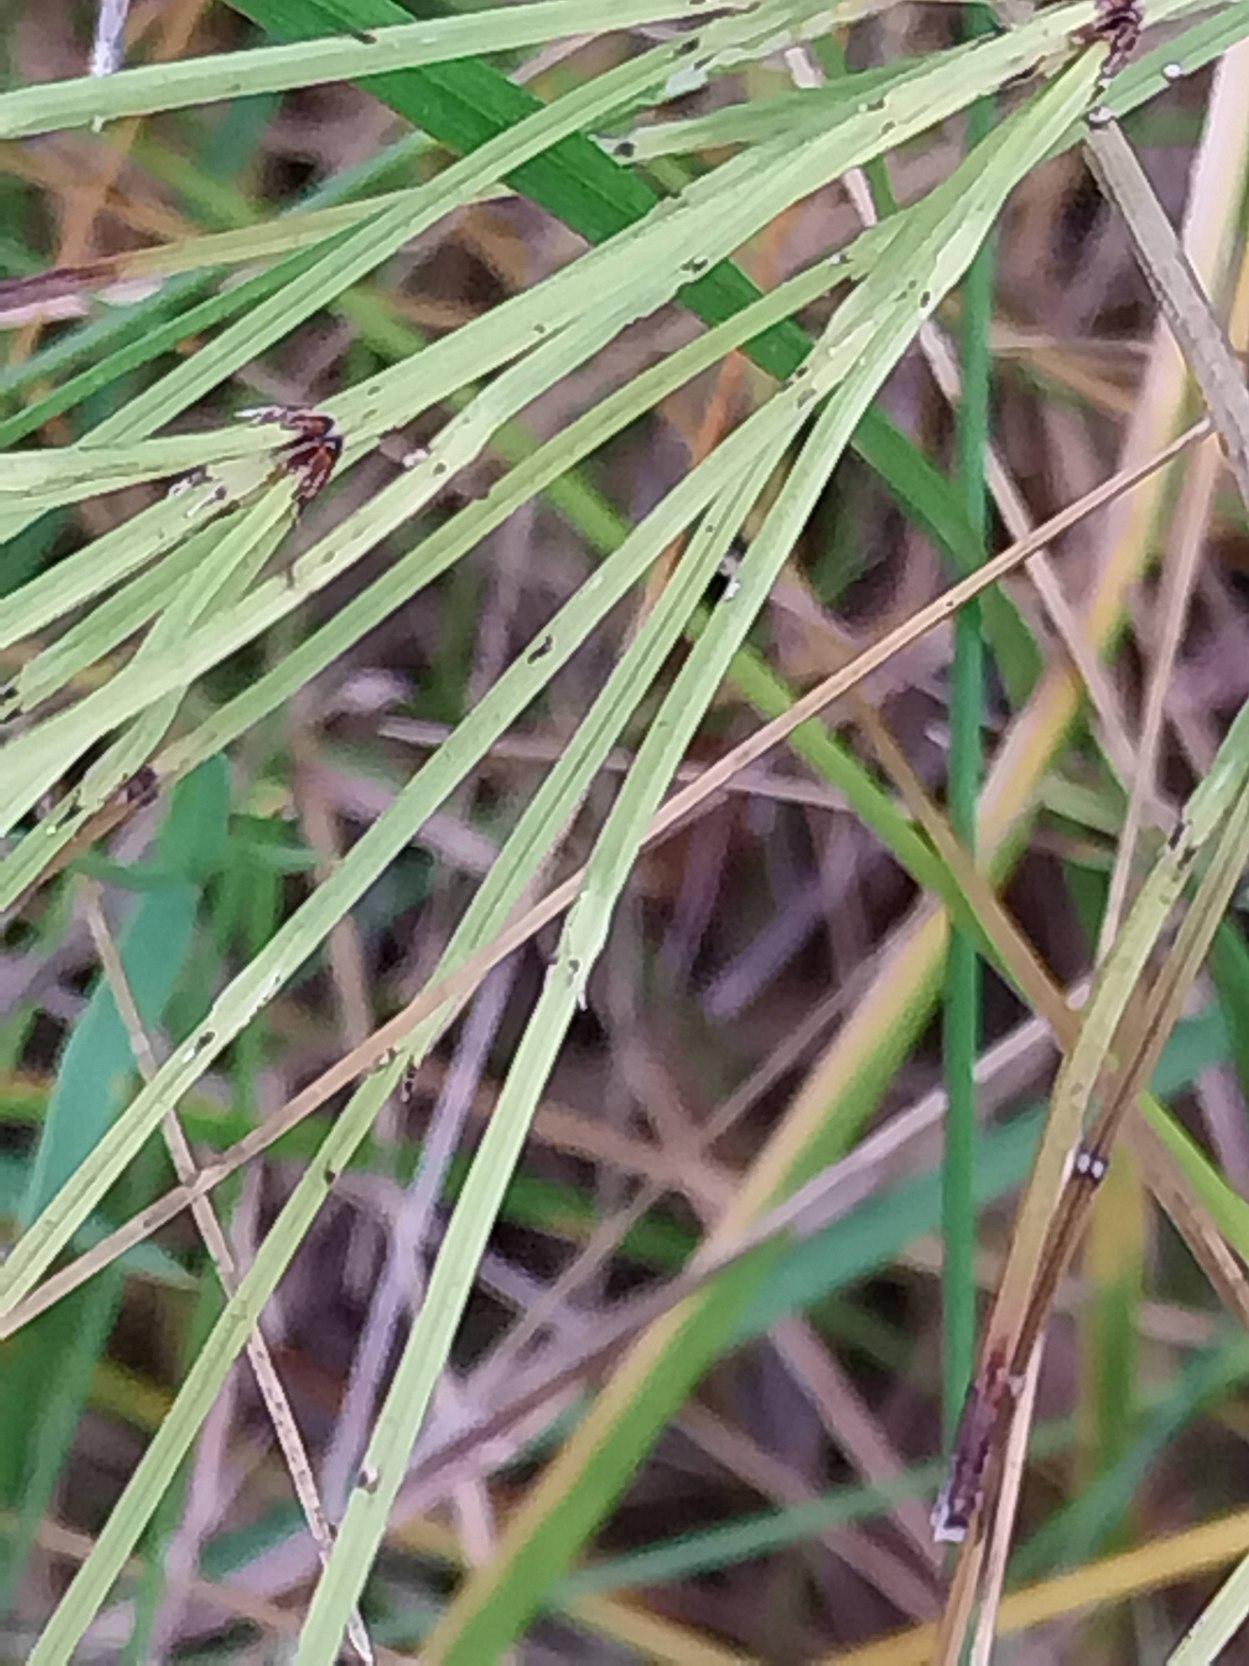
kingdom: Plantae
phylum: Tracheophyta
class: Polypodiopsida
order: Equisetales
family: Equisetaceae
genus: Equisetum
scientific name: Equisetum arvense
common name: Ager-padderok
